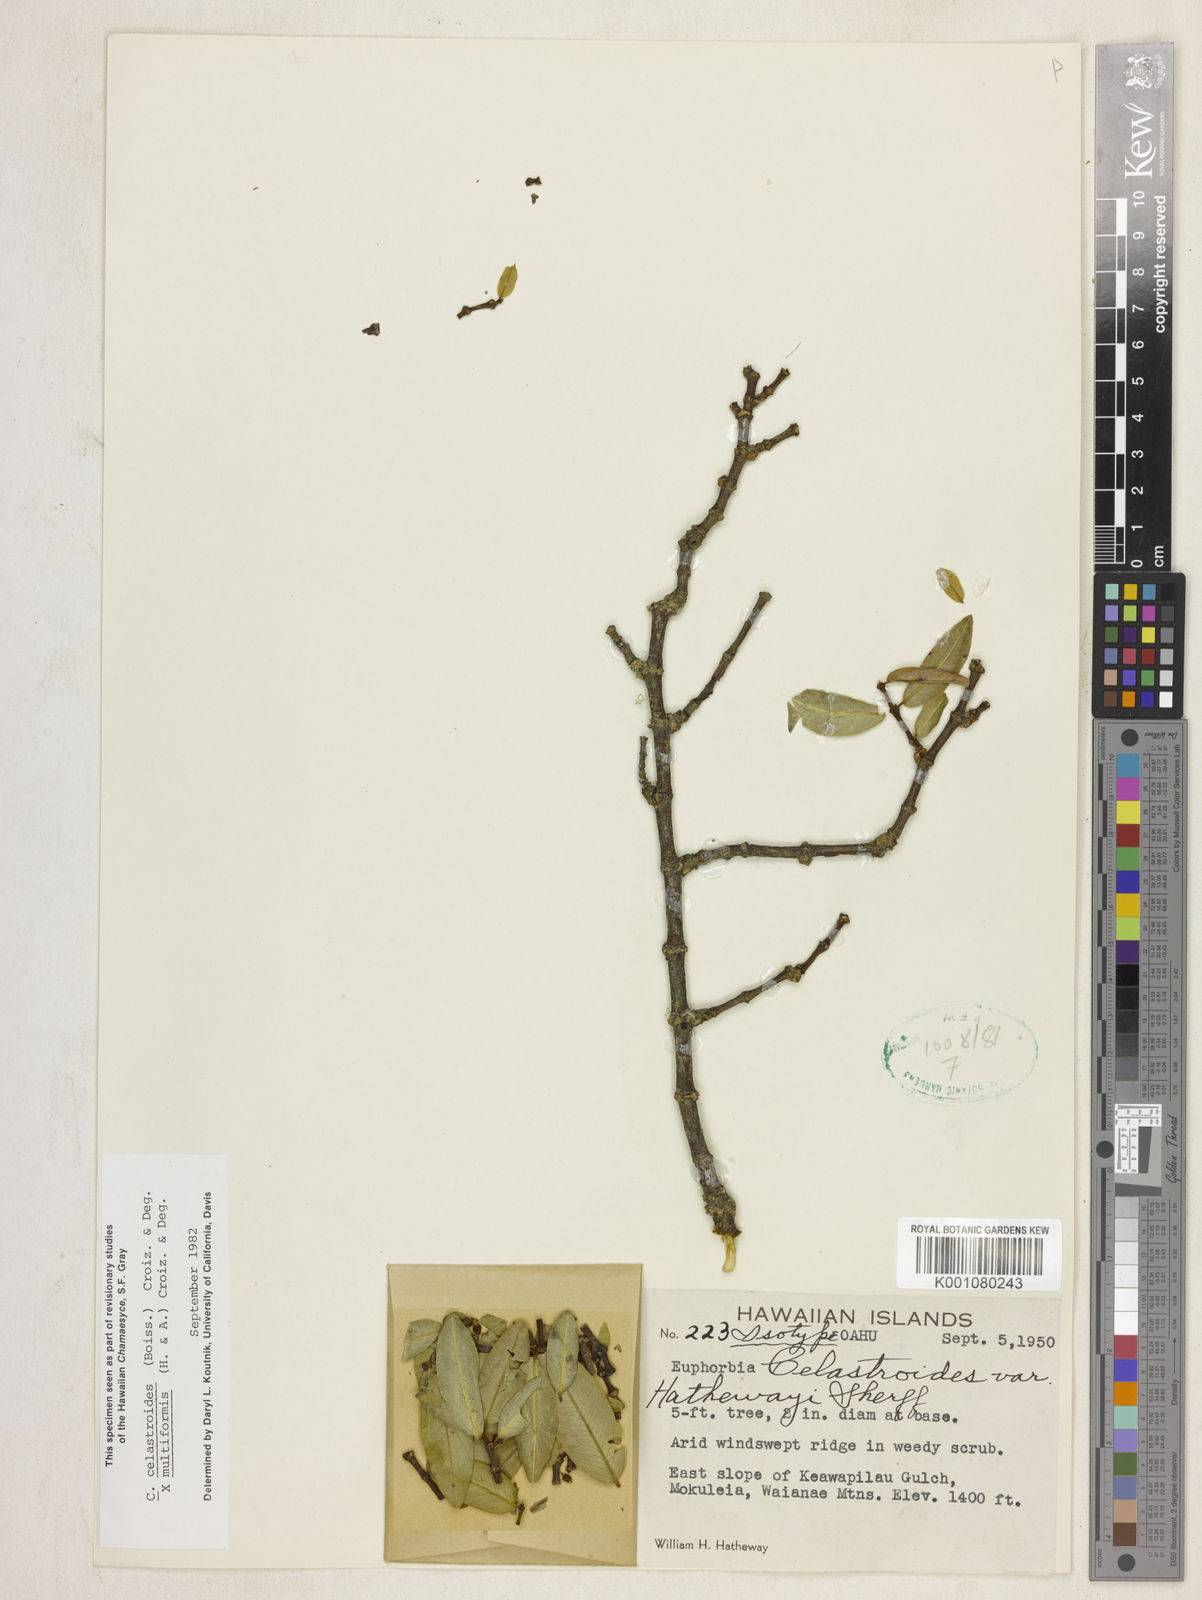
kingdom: Plantae
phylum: Tracheophyta
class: Magnoliopsida
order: Malpighiales
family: Euphorbiaceae
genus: Euphorbia
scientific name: Euphorbia celastroides
